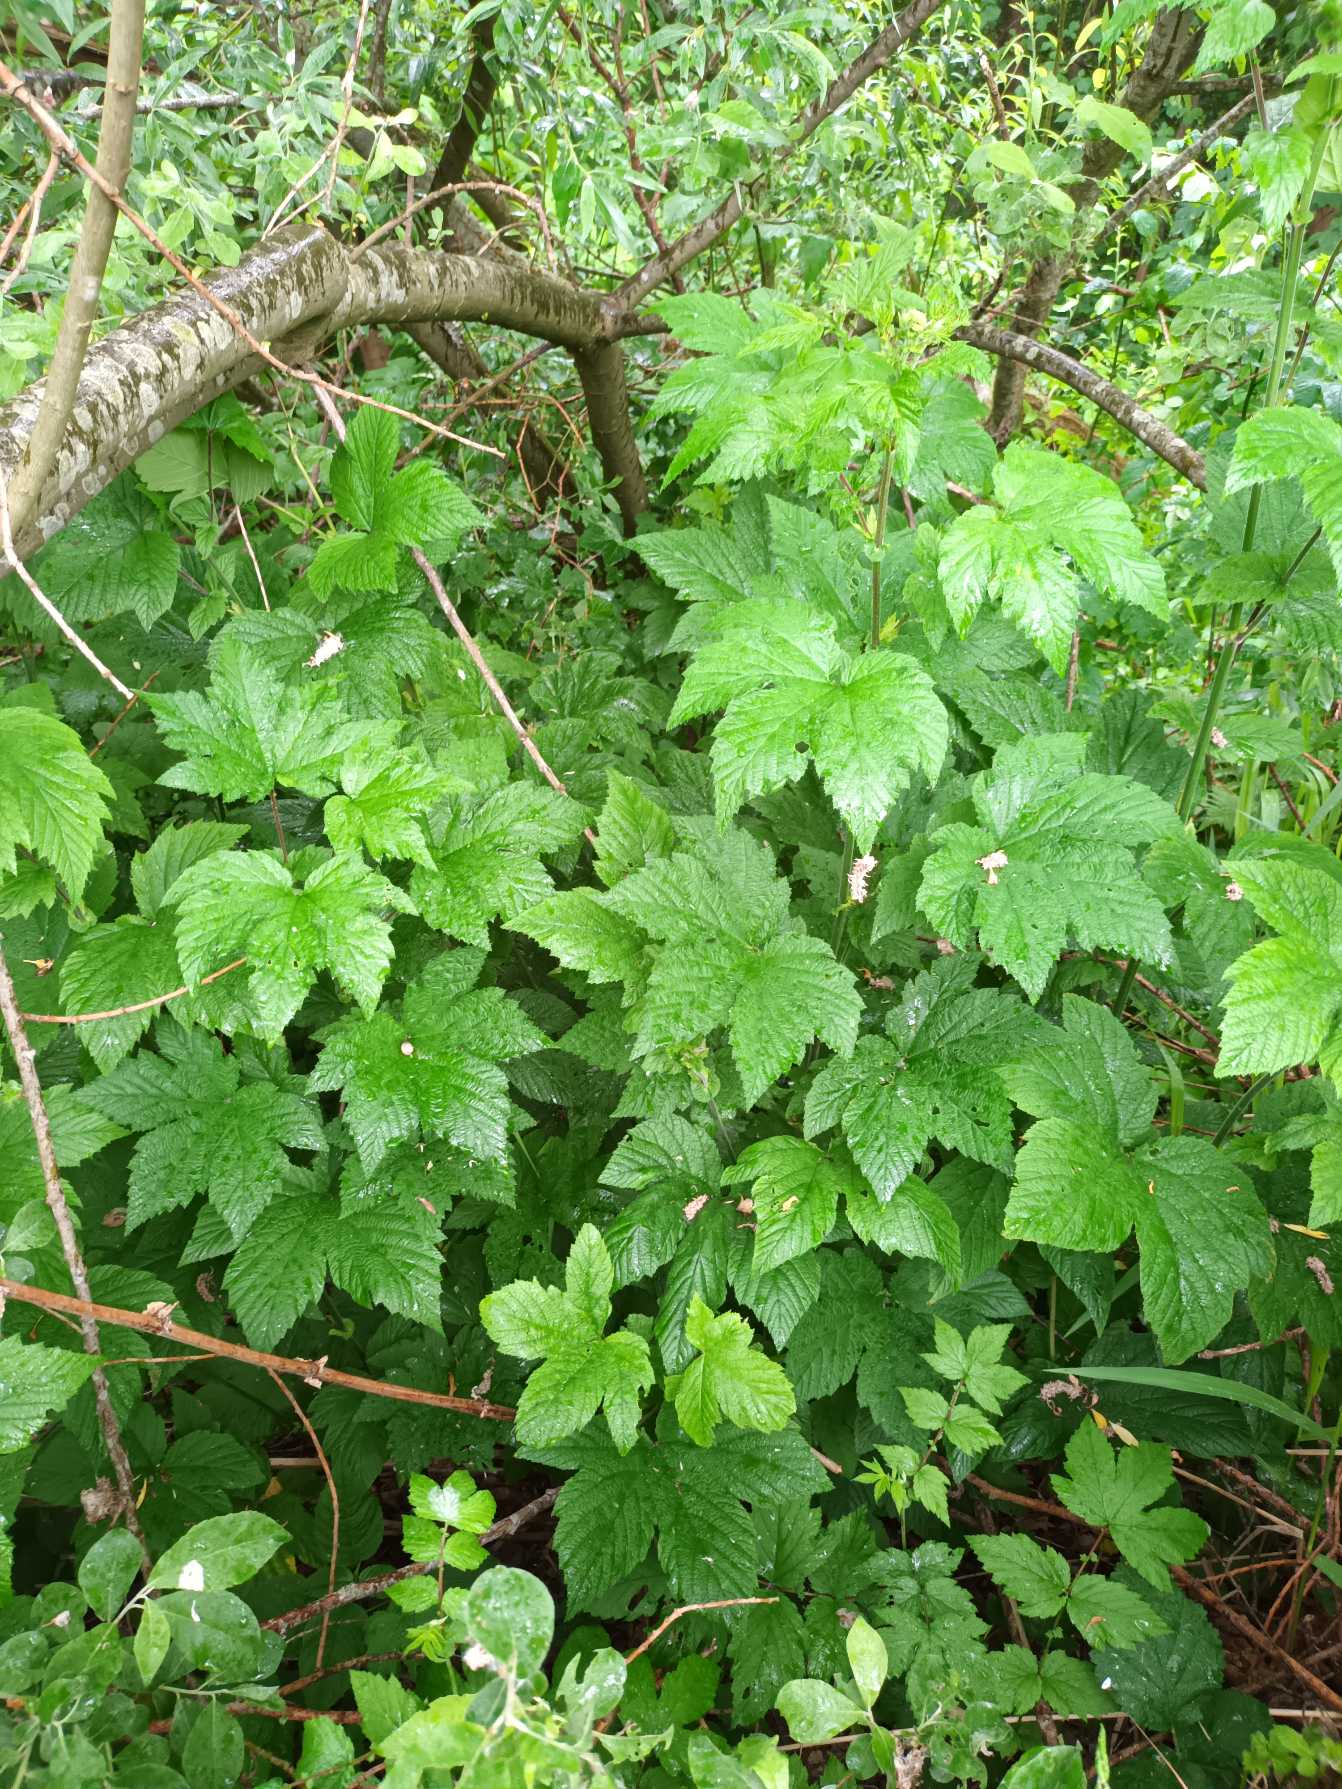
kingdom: Plantae
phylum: Tracheophyta
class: Magnoliopsida
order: Rosales
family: Rosaceae
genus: Filipendula
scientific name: Filipendula camtschatica
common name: Kæmpe-mjødurt
